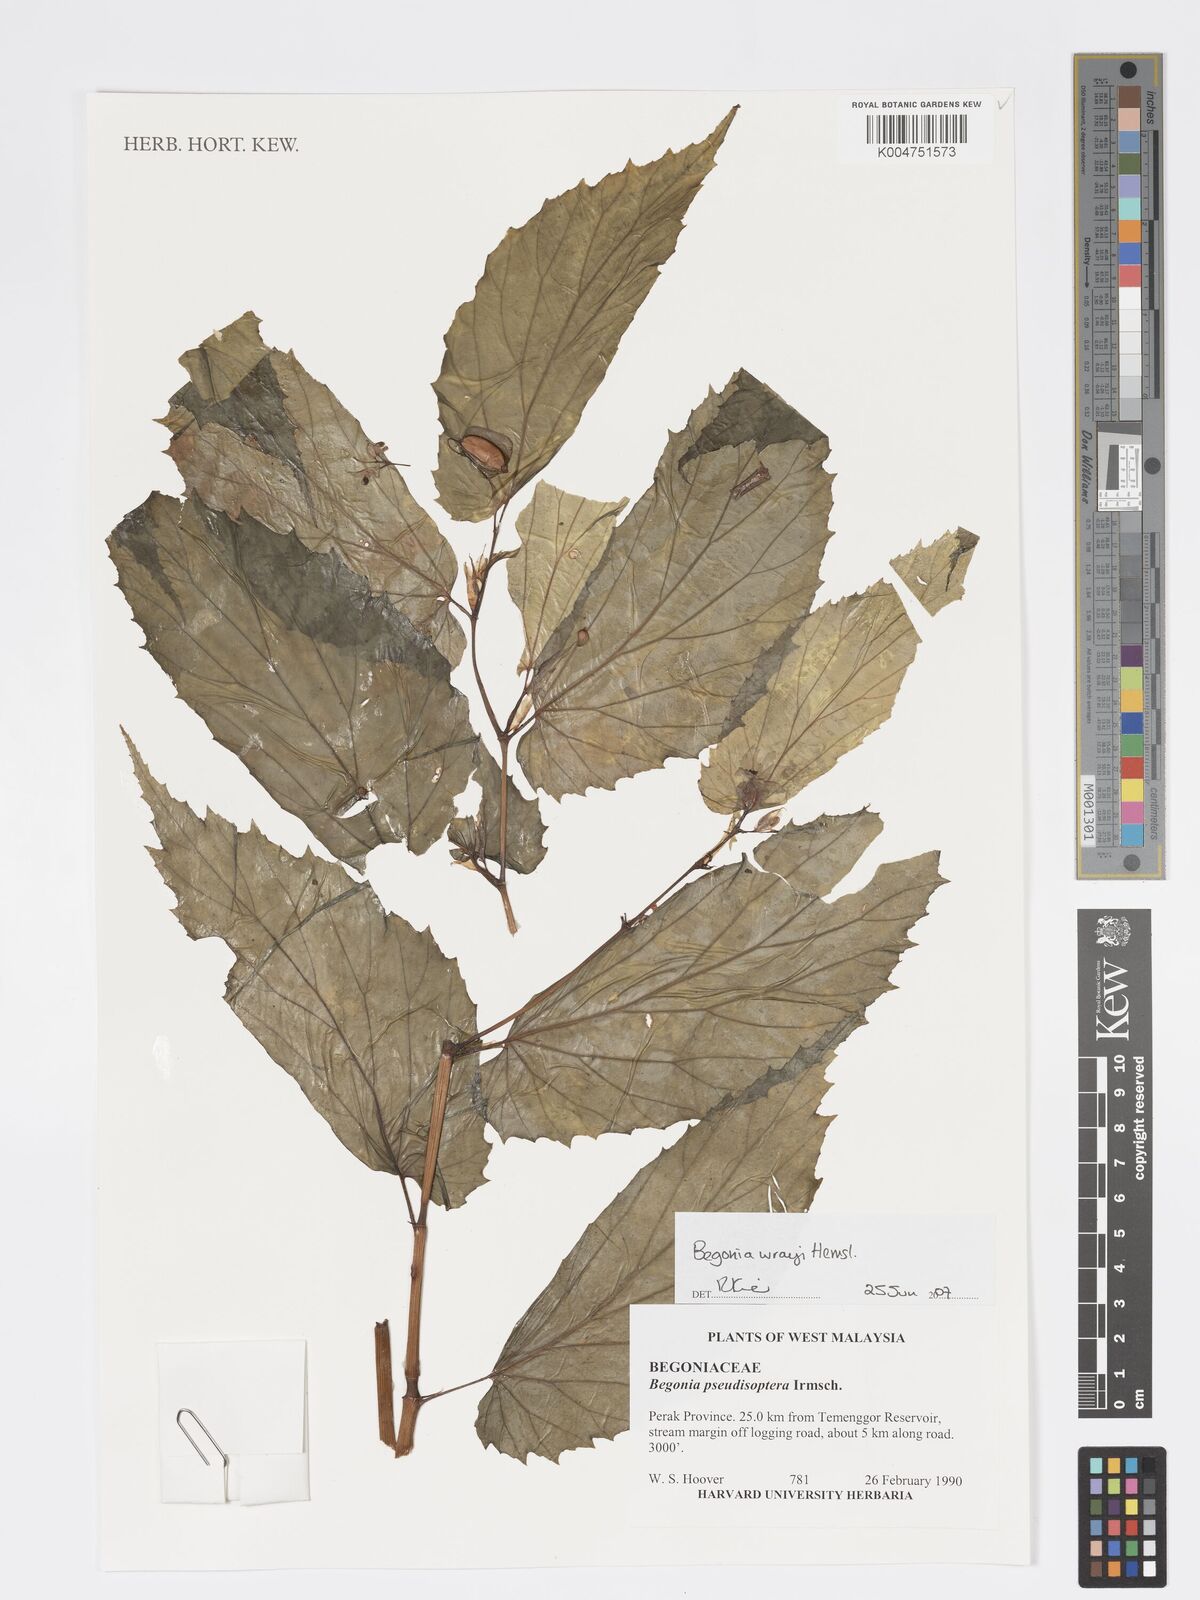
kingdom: Plantae
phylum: Tracheophyta
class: Magnoliopsida
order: Cucurbitales
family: Begoniaceae
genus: Begonia
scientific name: Begonia wrayi
